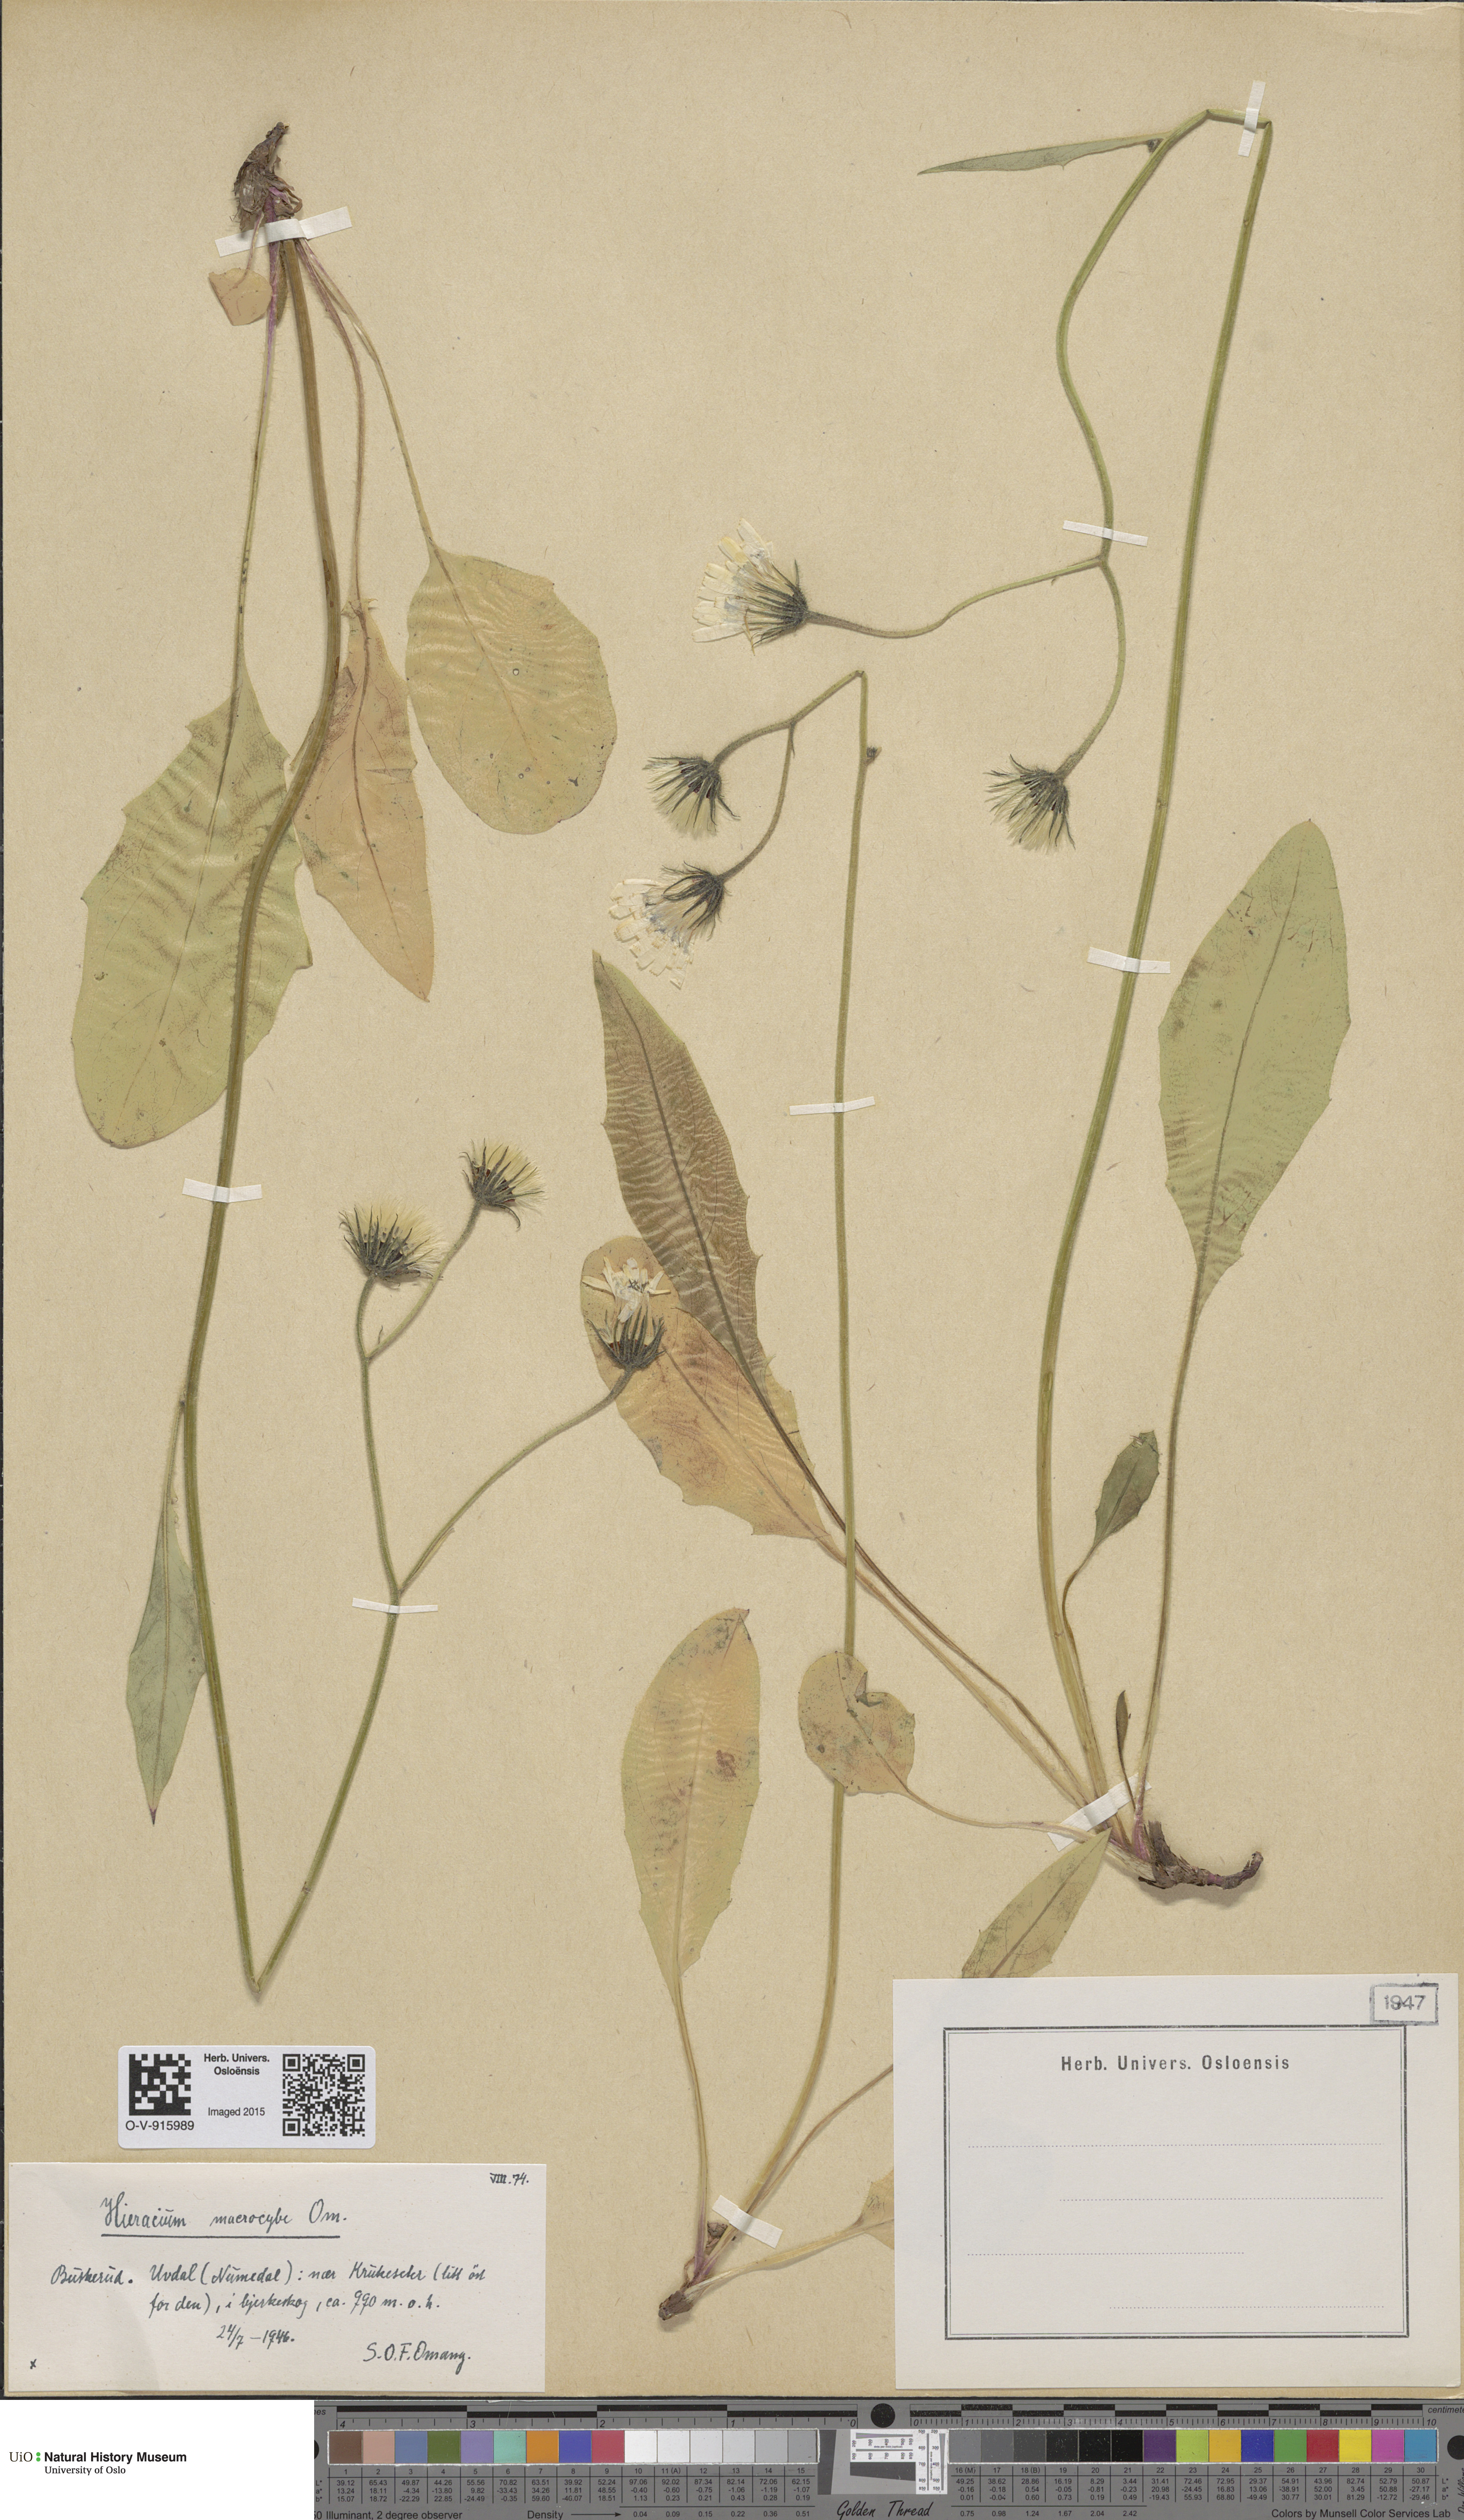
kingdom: Plantae
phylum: Tracheophyta
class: Magnoliopsida
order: Asterales
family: Asteraceae
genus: Hieracium
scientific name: Hieracium
